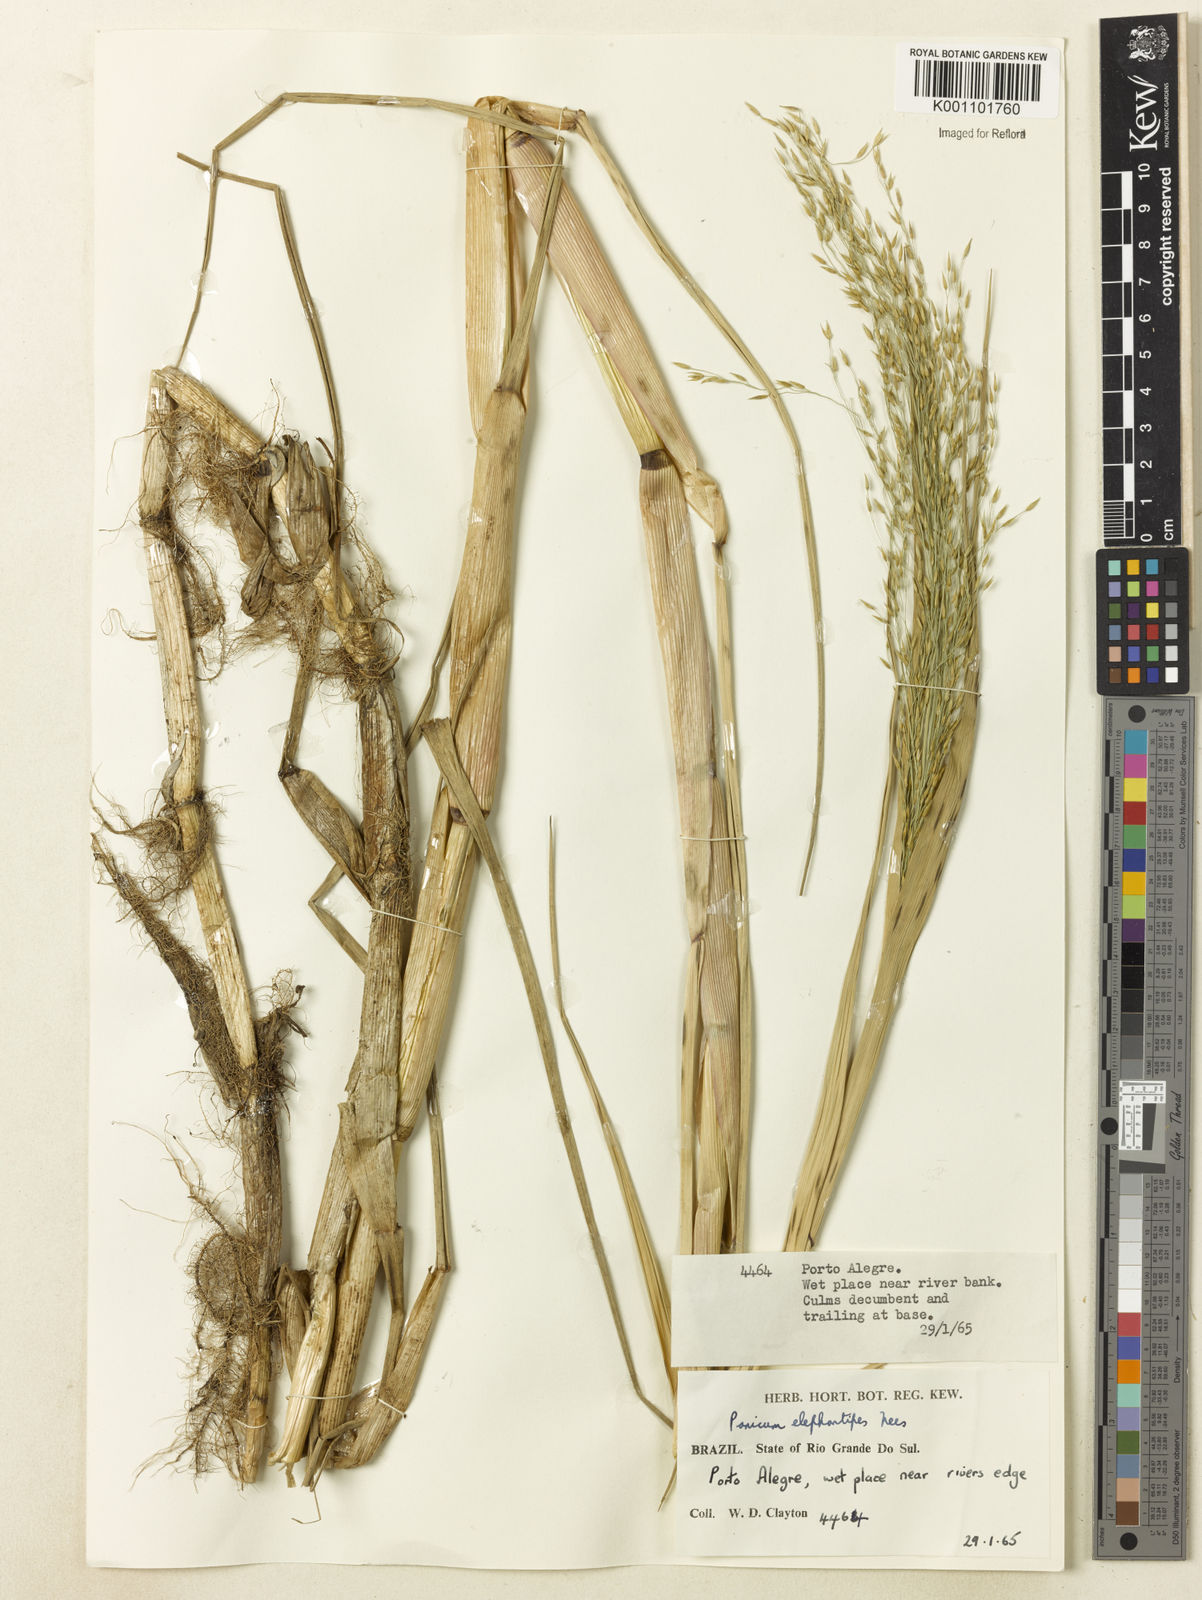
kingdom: Plantae
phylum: Tracheophyta
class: Liliopsida
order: Poales
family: Poaceae
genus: Louisiella
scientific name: Louisiella elephantipes
